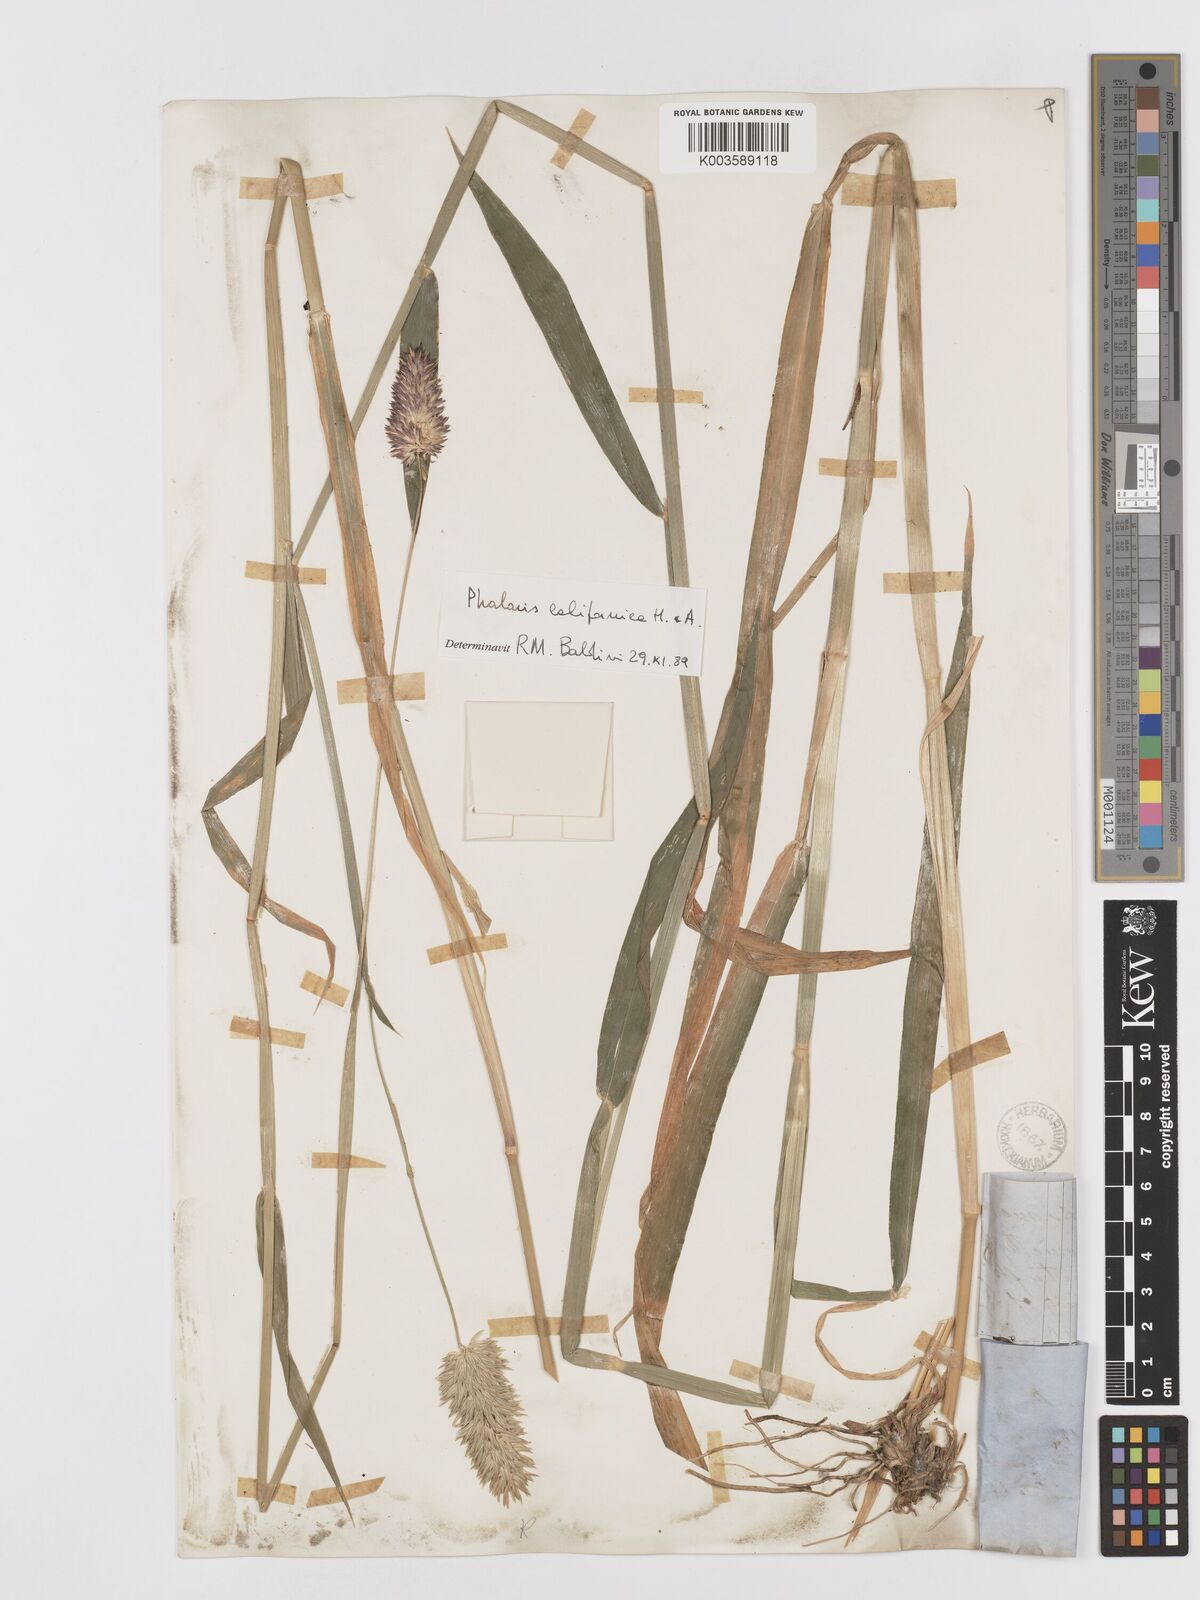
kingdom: Plantae
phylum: Tracheophyta
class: Liliopsida
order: Poales
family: Poaceae
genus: Phalaris
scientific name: Phalaris californica
